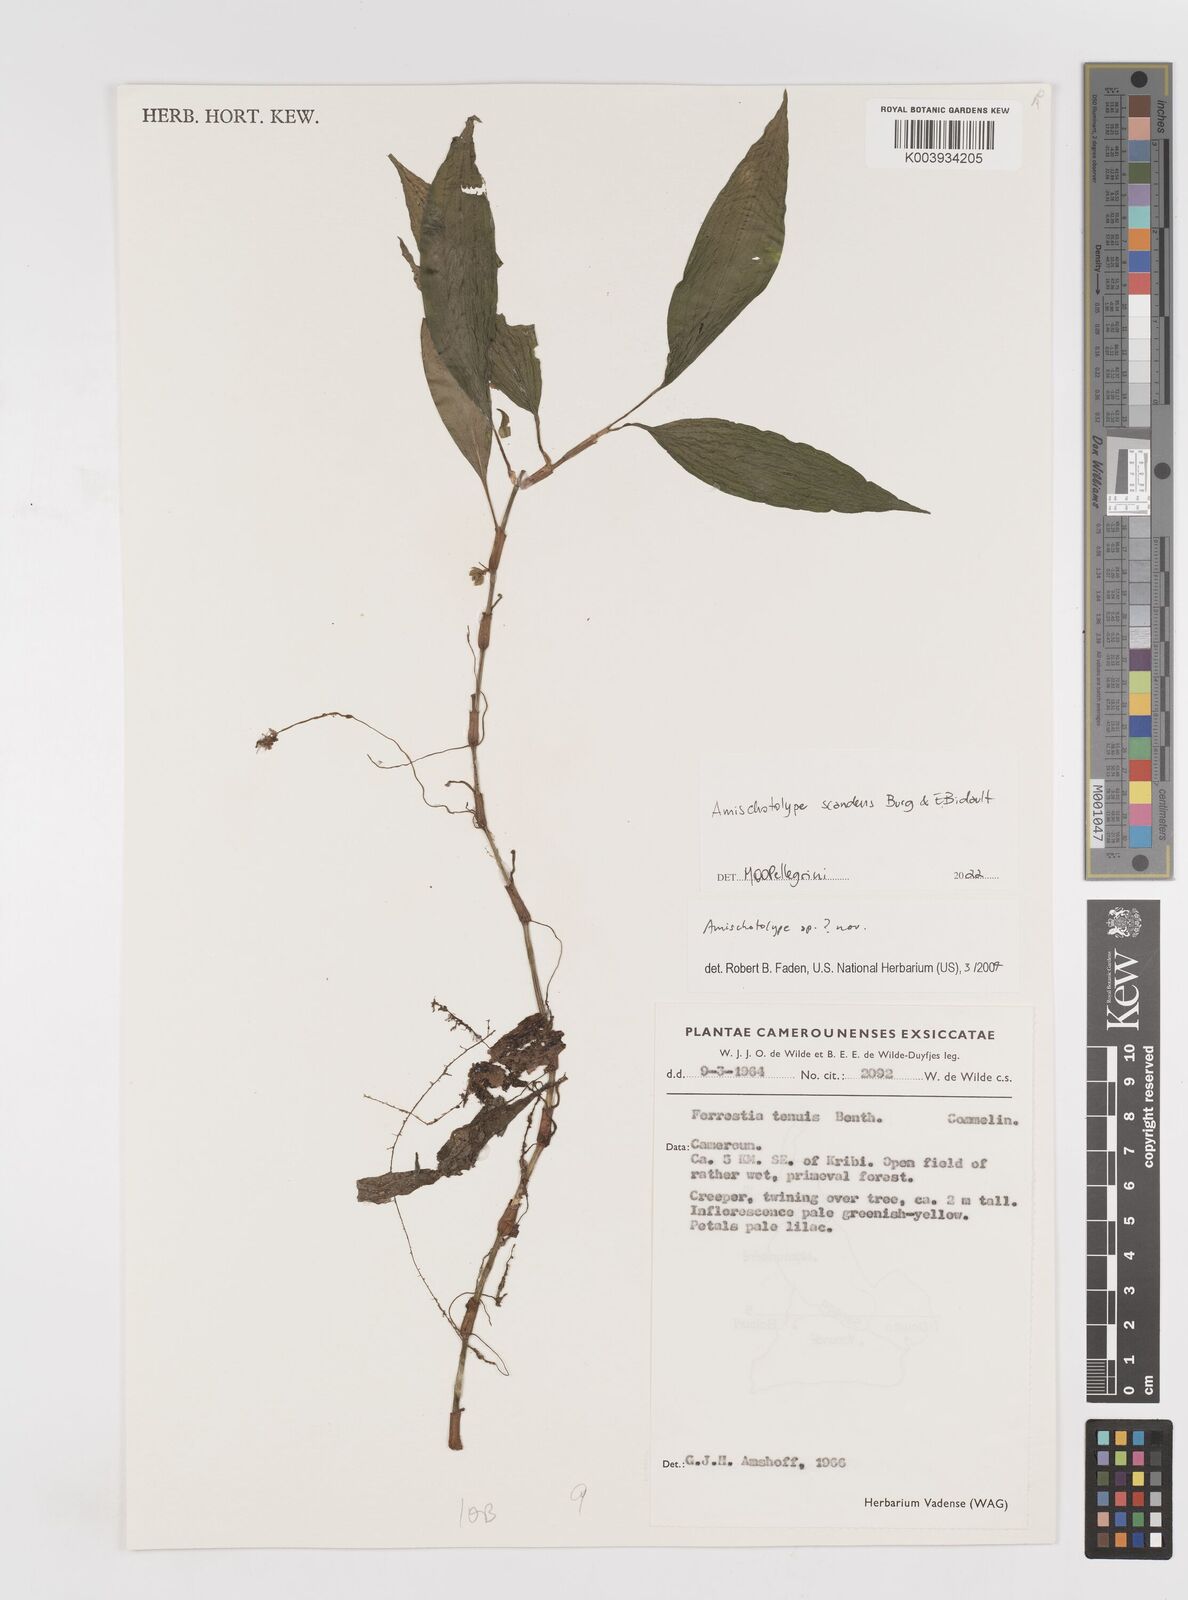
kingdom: Plantae
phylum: Tracheophyta
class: Liliopsida
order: Commelinales
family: Commelinaceae
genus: Amischotolype
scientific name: Amischotolype
